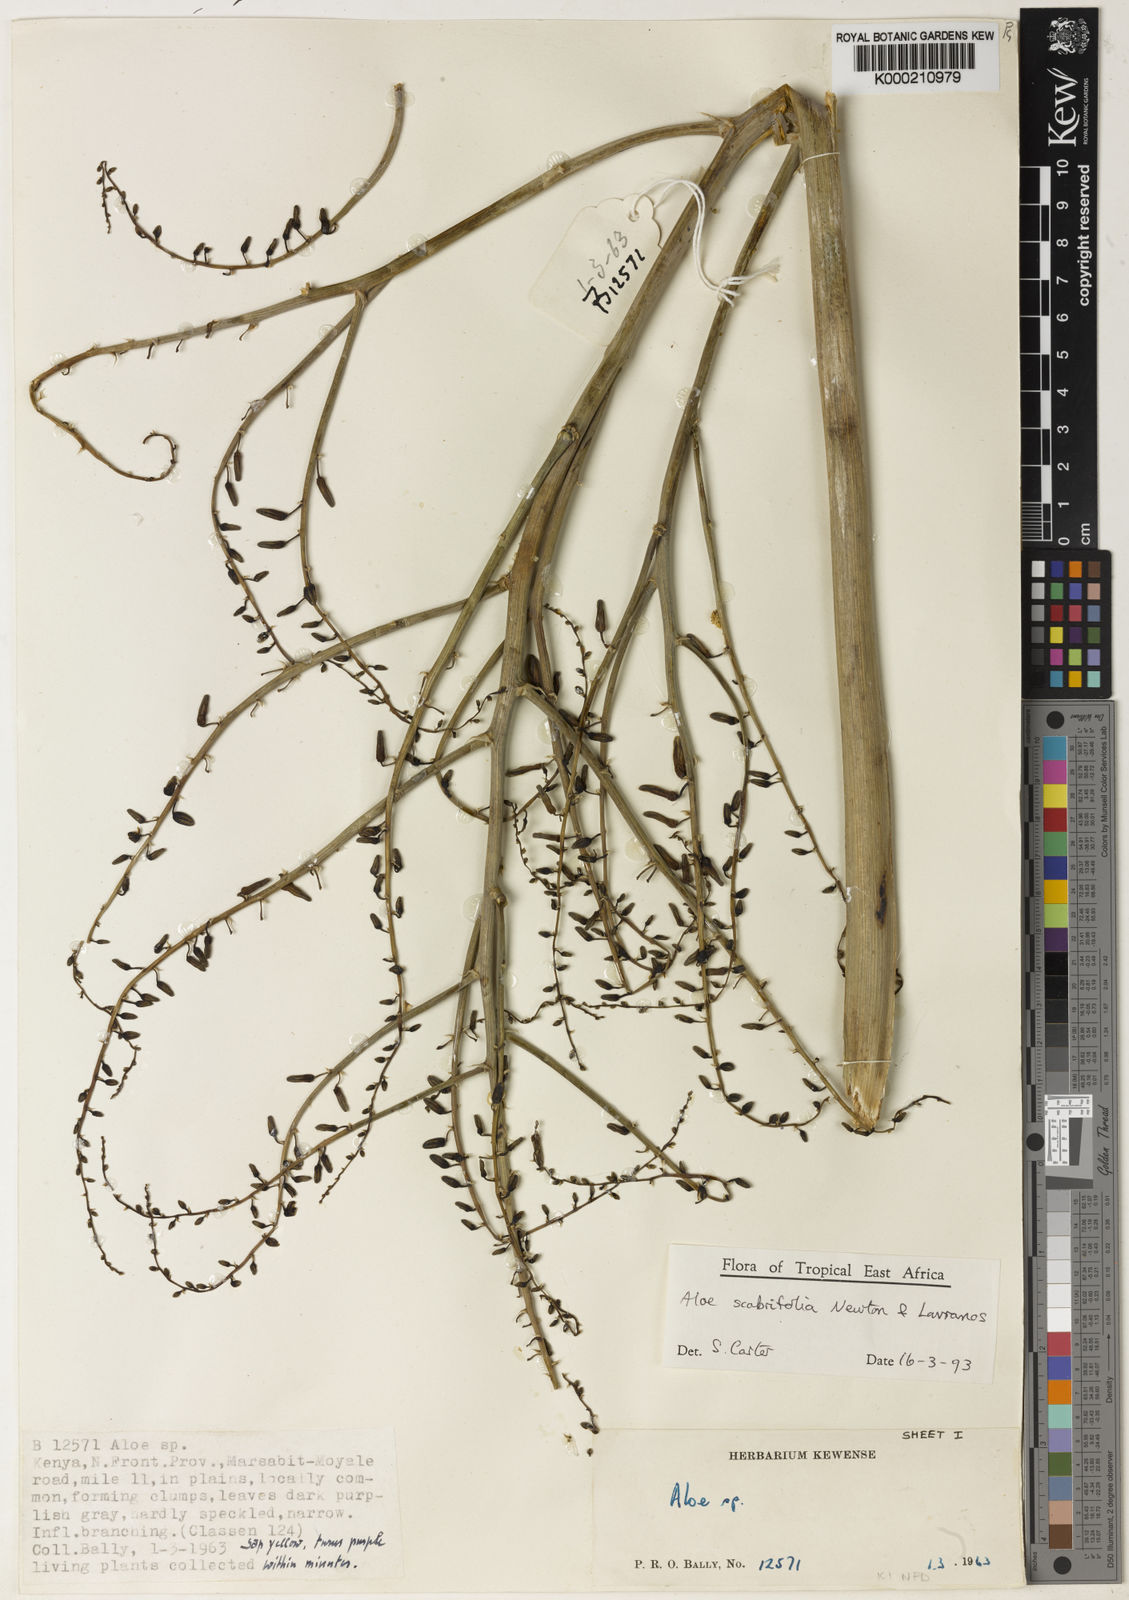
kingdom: Plantae
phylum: Tracheophyta
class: Liliopsida
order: Asparagales
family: Asphodelaceae
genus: Aloe
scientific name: Aloe scabrifolia
